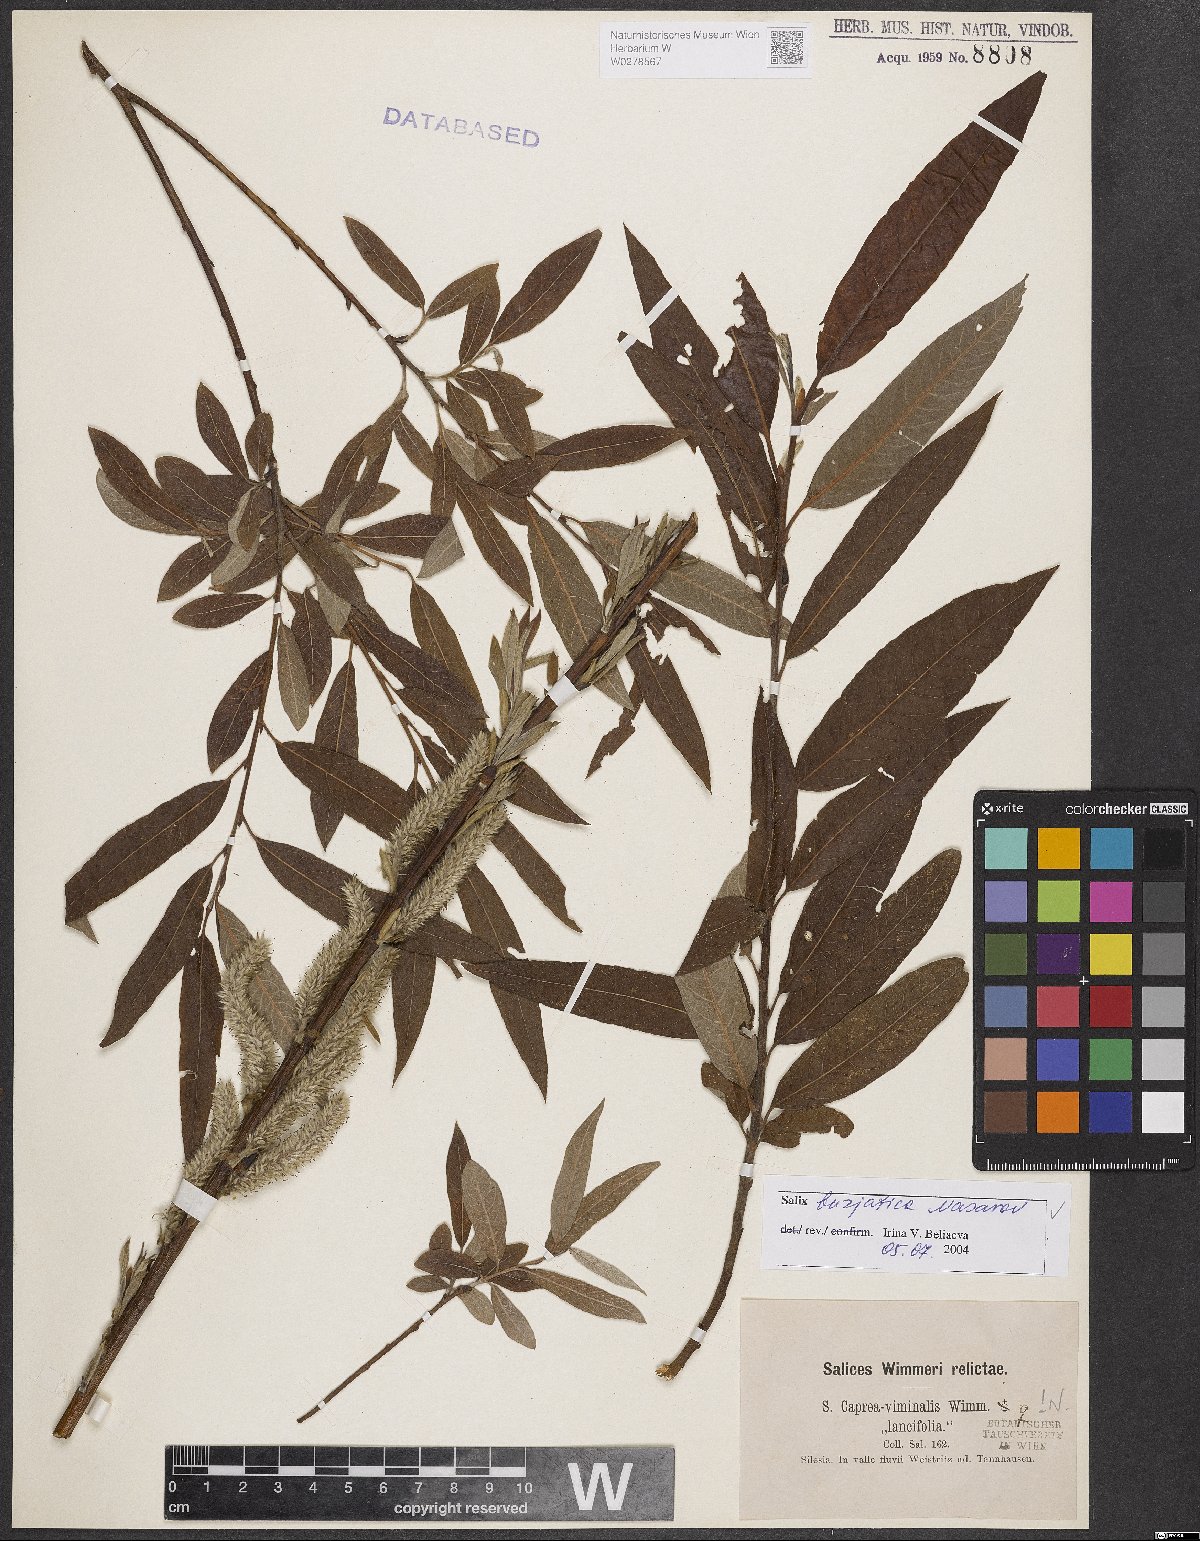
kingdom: Plantae
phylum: Tracheophyta
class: Magnoliopsida
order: Malpighiales
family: Salicaceae
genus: Salix
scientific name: Salix gmelinii
